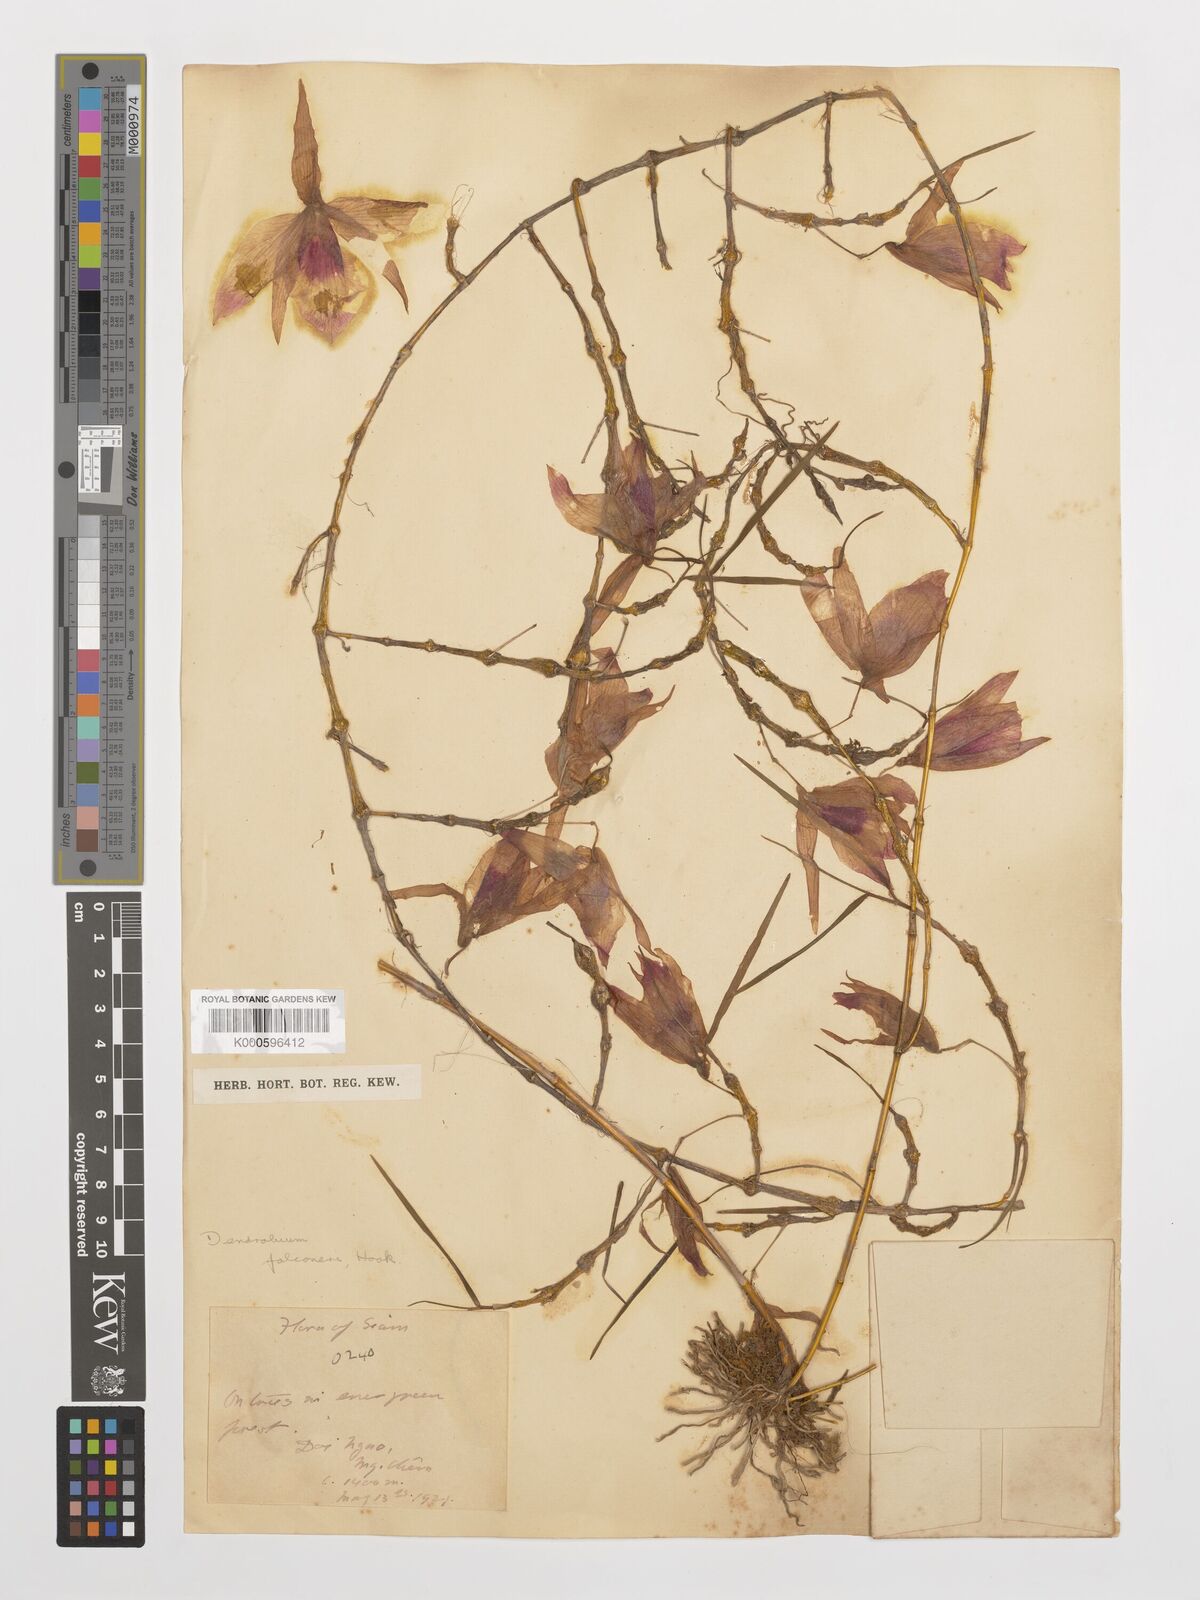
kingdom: Plantae
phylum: Tracheophyta
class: Liliopsida
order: Asparagales
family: Orchidaceae
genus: Dendrobium
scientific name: Dendrobium falconeri
